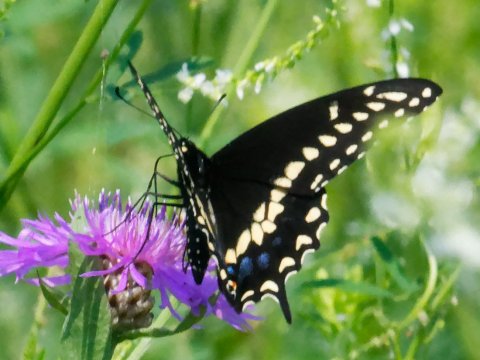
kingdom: Animalia
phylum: Arthropoda
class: Insecta
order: Lepidoptera
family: Papilionidae
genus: Papilio
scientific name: Papilio polyxenes
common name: Black Swallowtail
